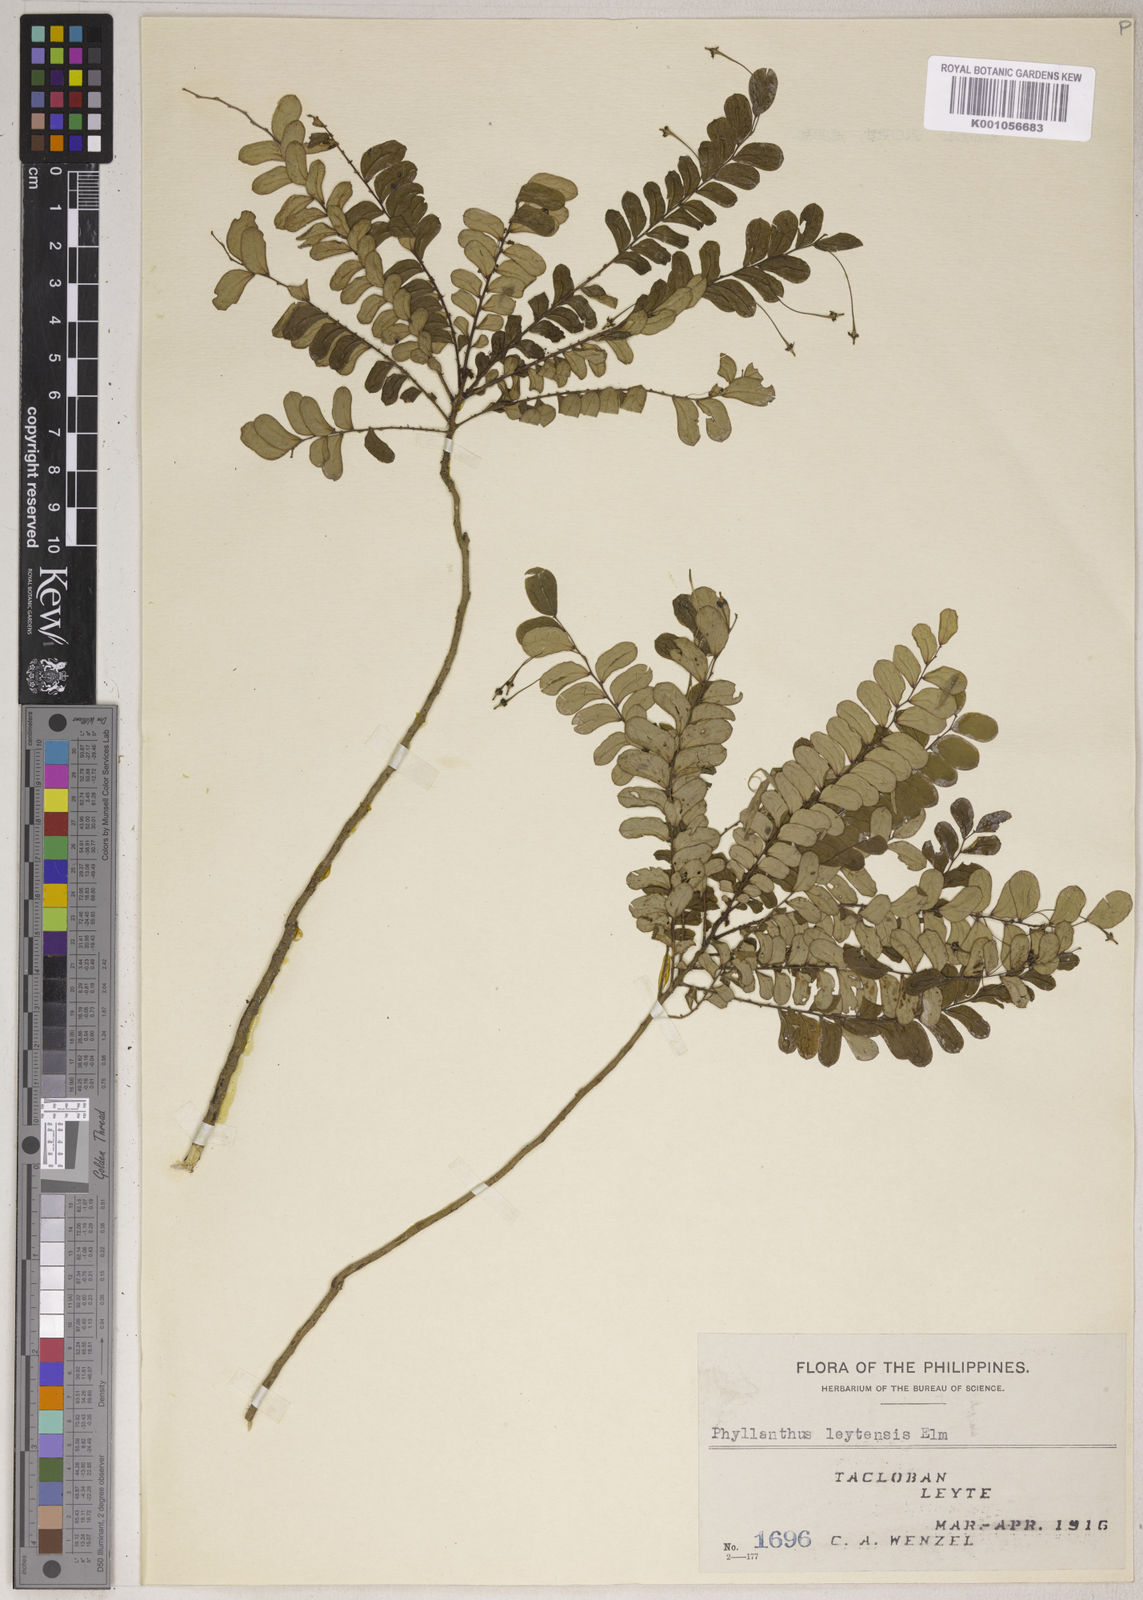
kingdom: Plantae
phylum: Tracheophyta
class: Magnoliopsida
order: Malpighiales
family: Phyllanthaceae
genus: Phyllanthus
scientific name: Phyllanthus leytensis
